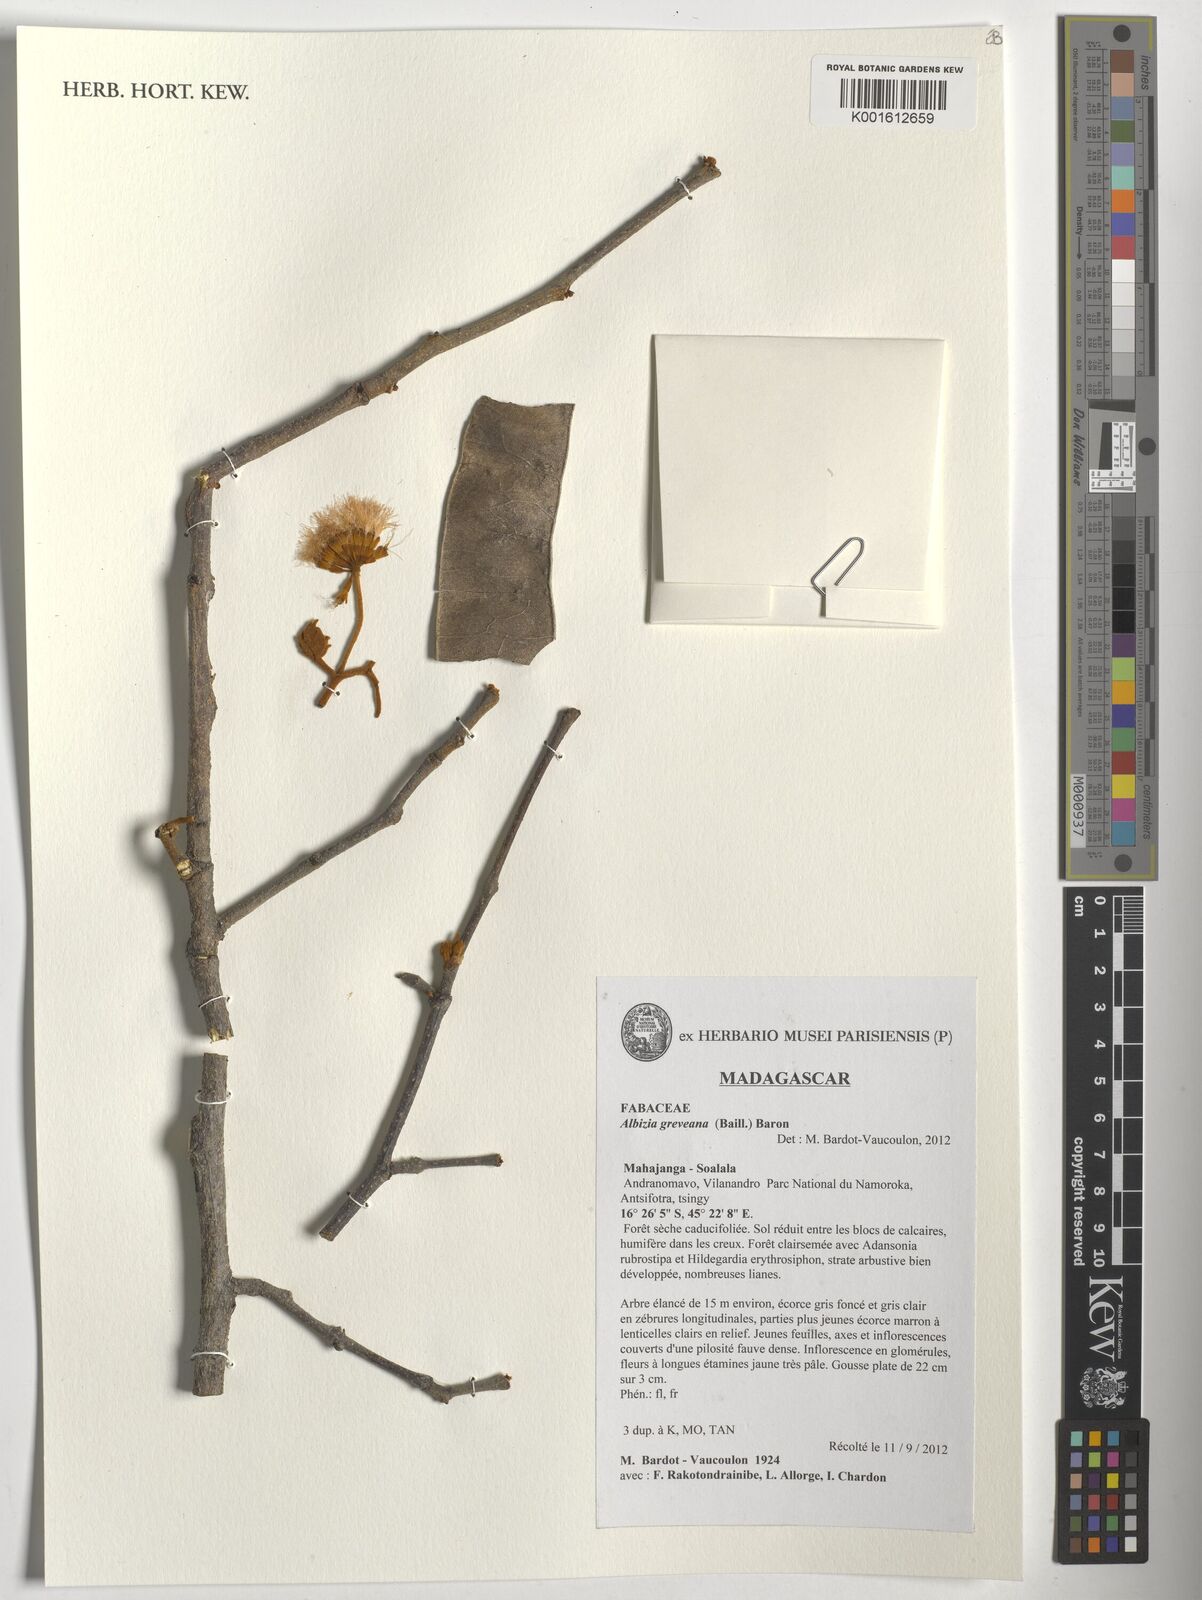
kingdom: Plantae
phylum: Tracheophyta
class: Magnoliopsida
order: Fabales
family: Fabaceae
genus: Albizia
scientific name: Albizia
